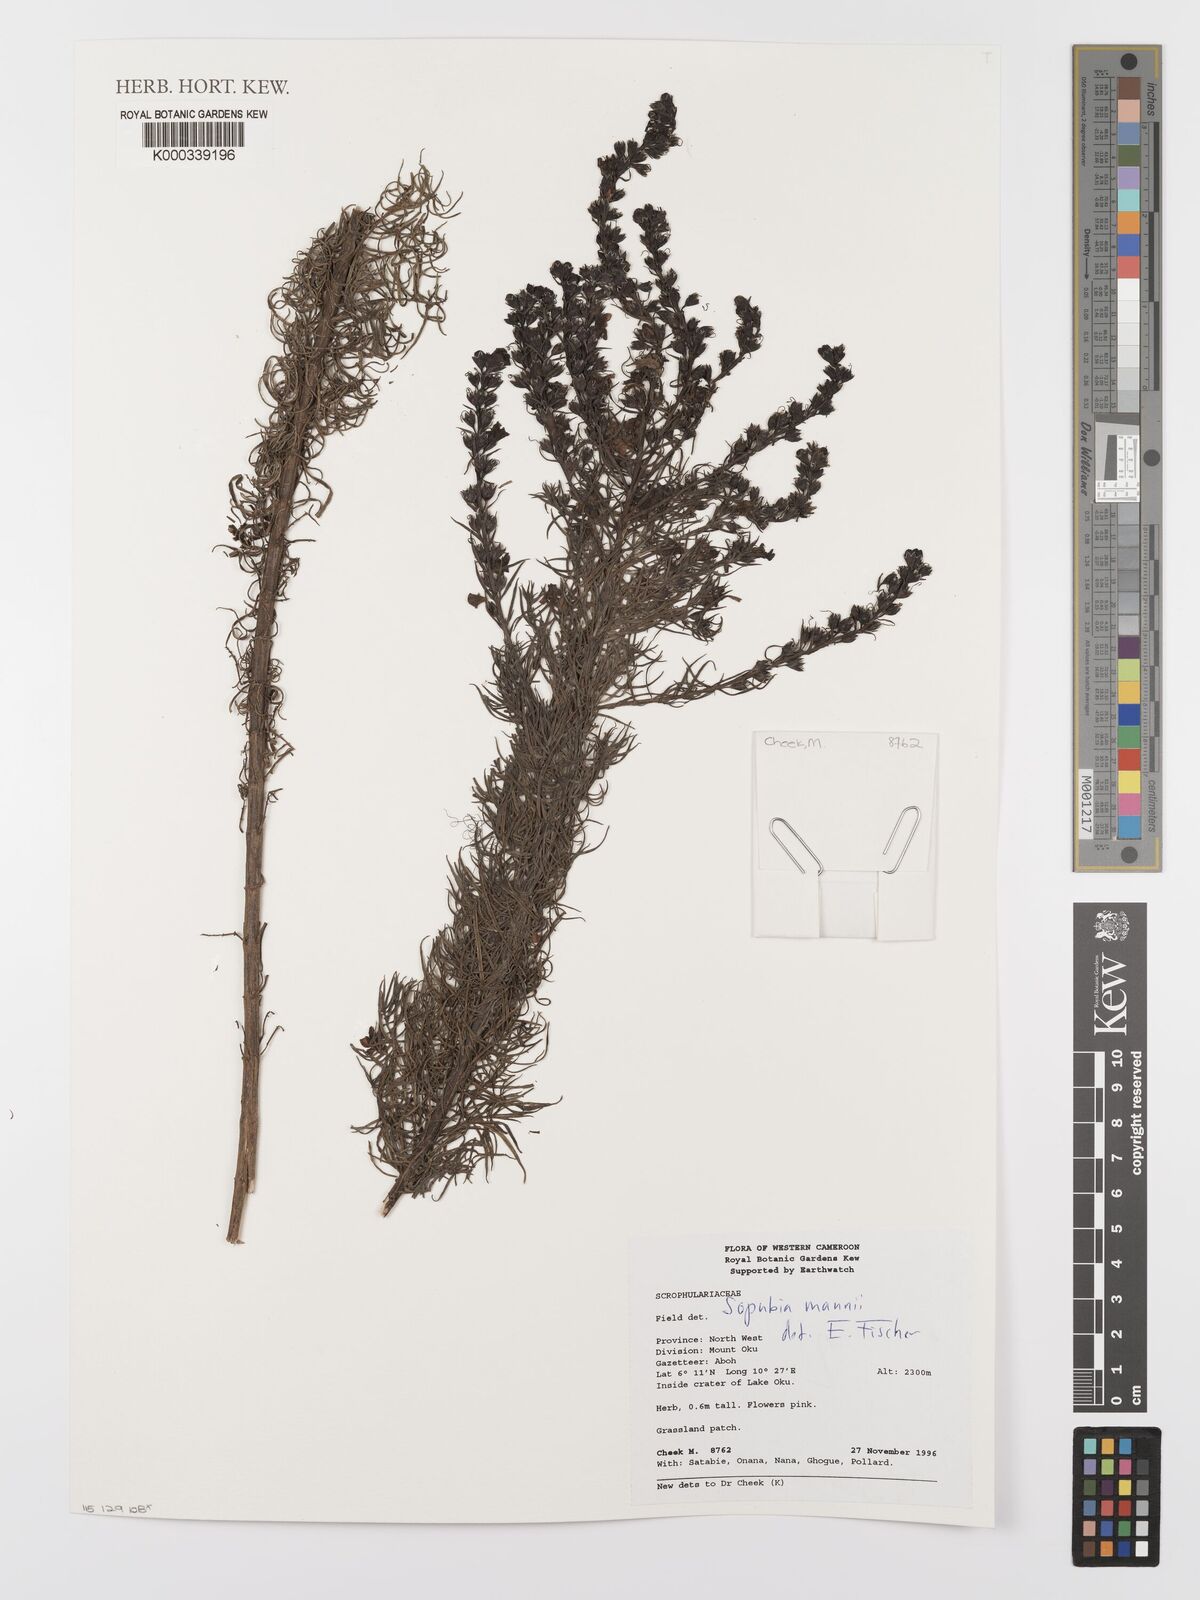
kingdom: Plantae
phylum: Tracheophyta
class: Magnoliopsida
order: Lamiales
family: Orobanchaceae
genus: Sopubia
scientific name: Sopubia mannii
